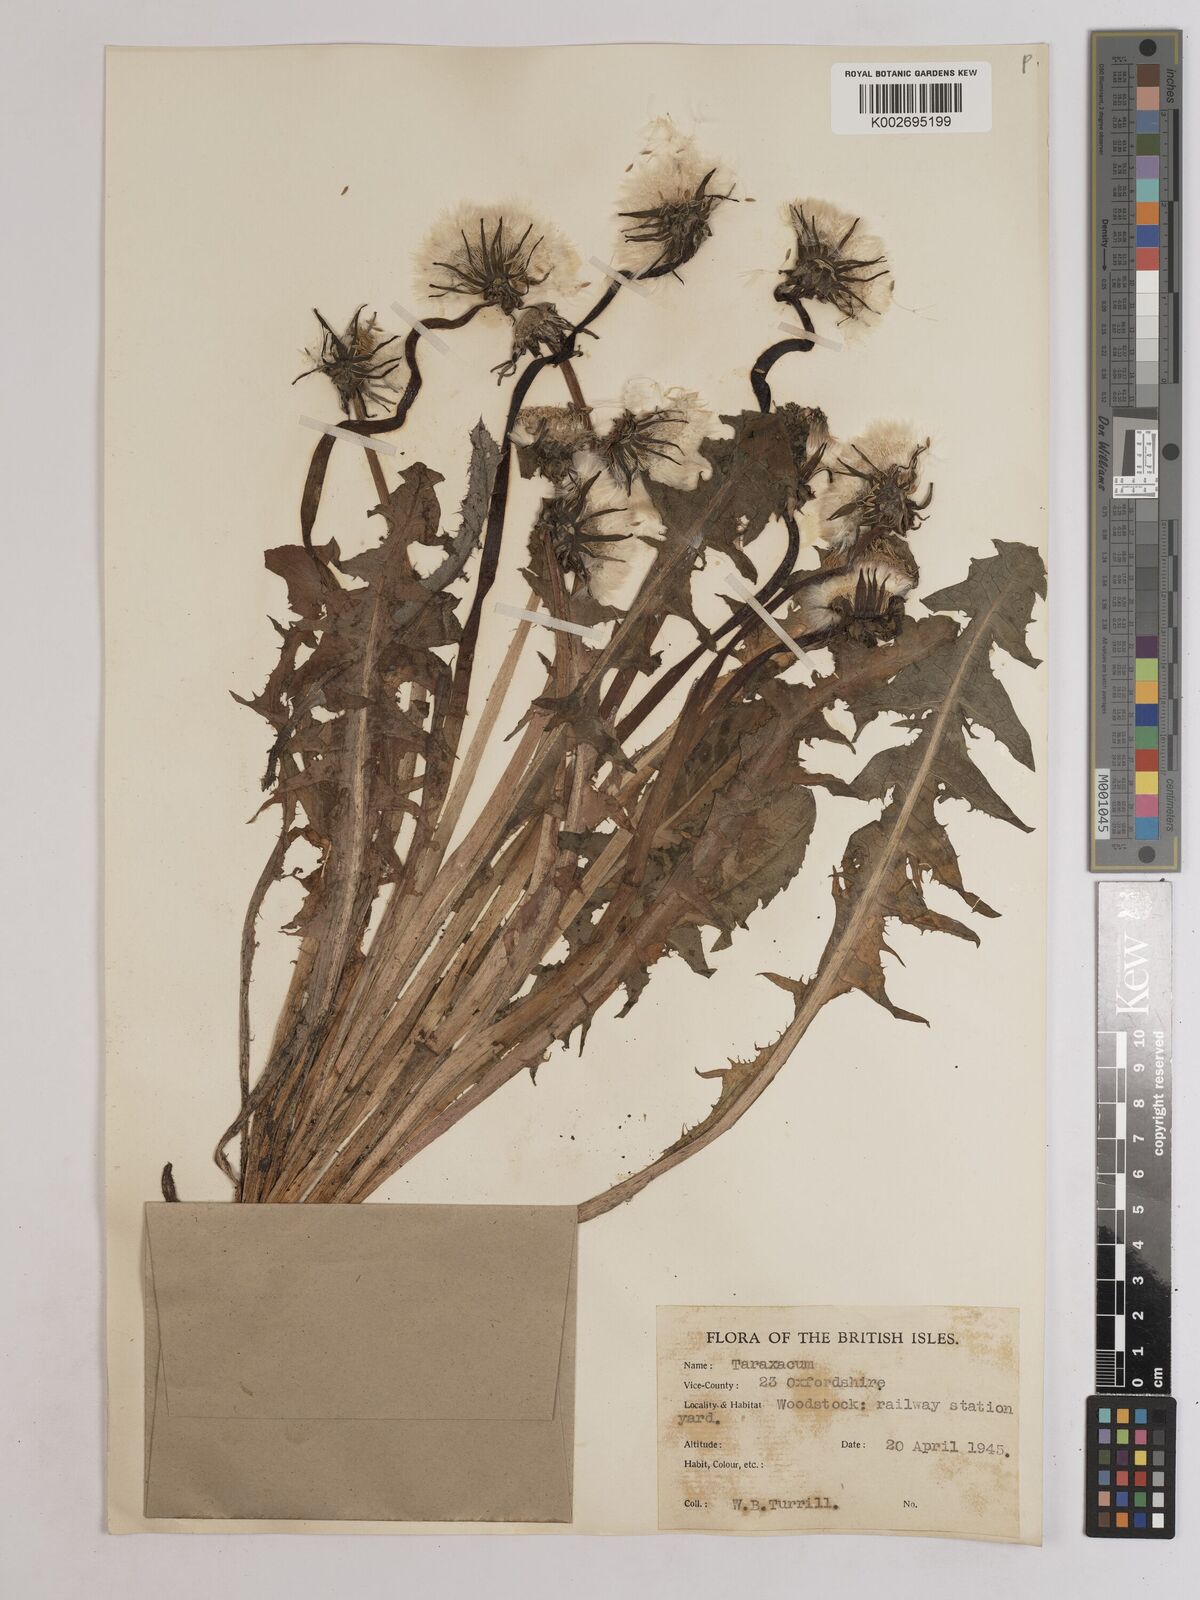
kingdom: Plantae
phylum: Tracheophyta
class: Magnoliopsida
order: Asterales
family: Asteraceae
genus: Taraxacum
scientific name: Taraxacum officinale
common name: Common dandelion
